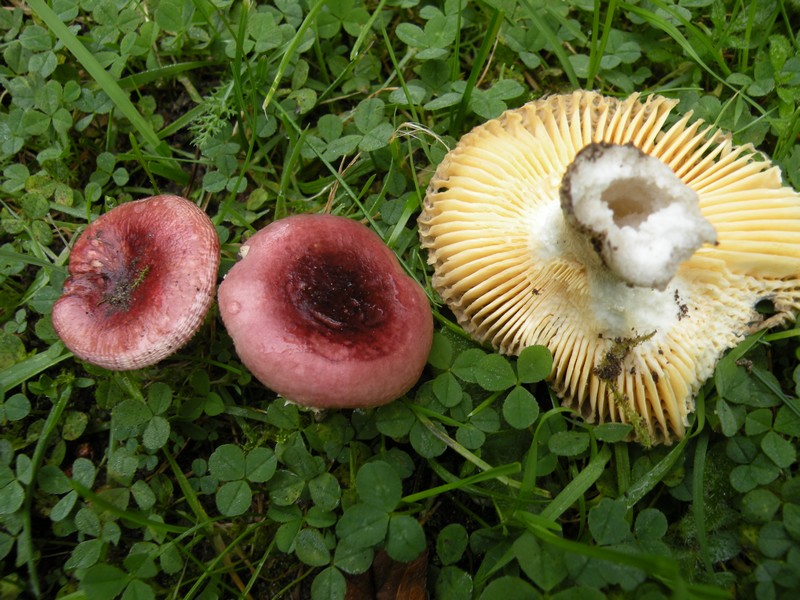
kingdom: Fungi
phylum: Basidiomycota
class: Agaricomycetes
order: Russulales
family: Russulaceae
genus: Russula
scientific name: Russula cessans
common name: fyrre-skørhat
